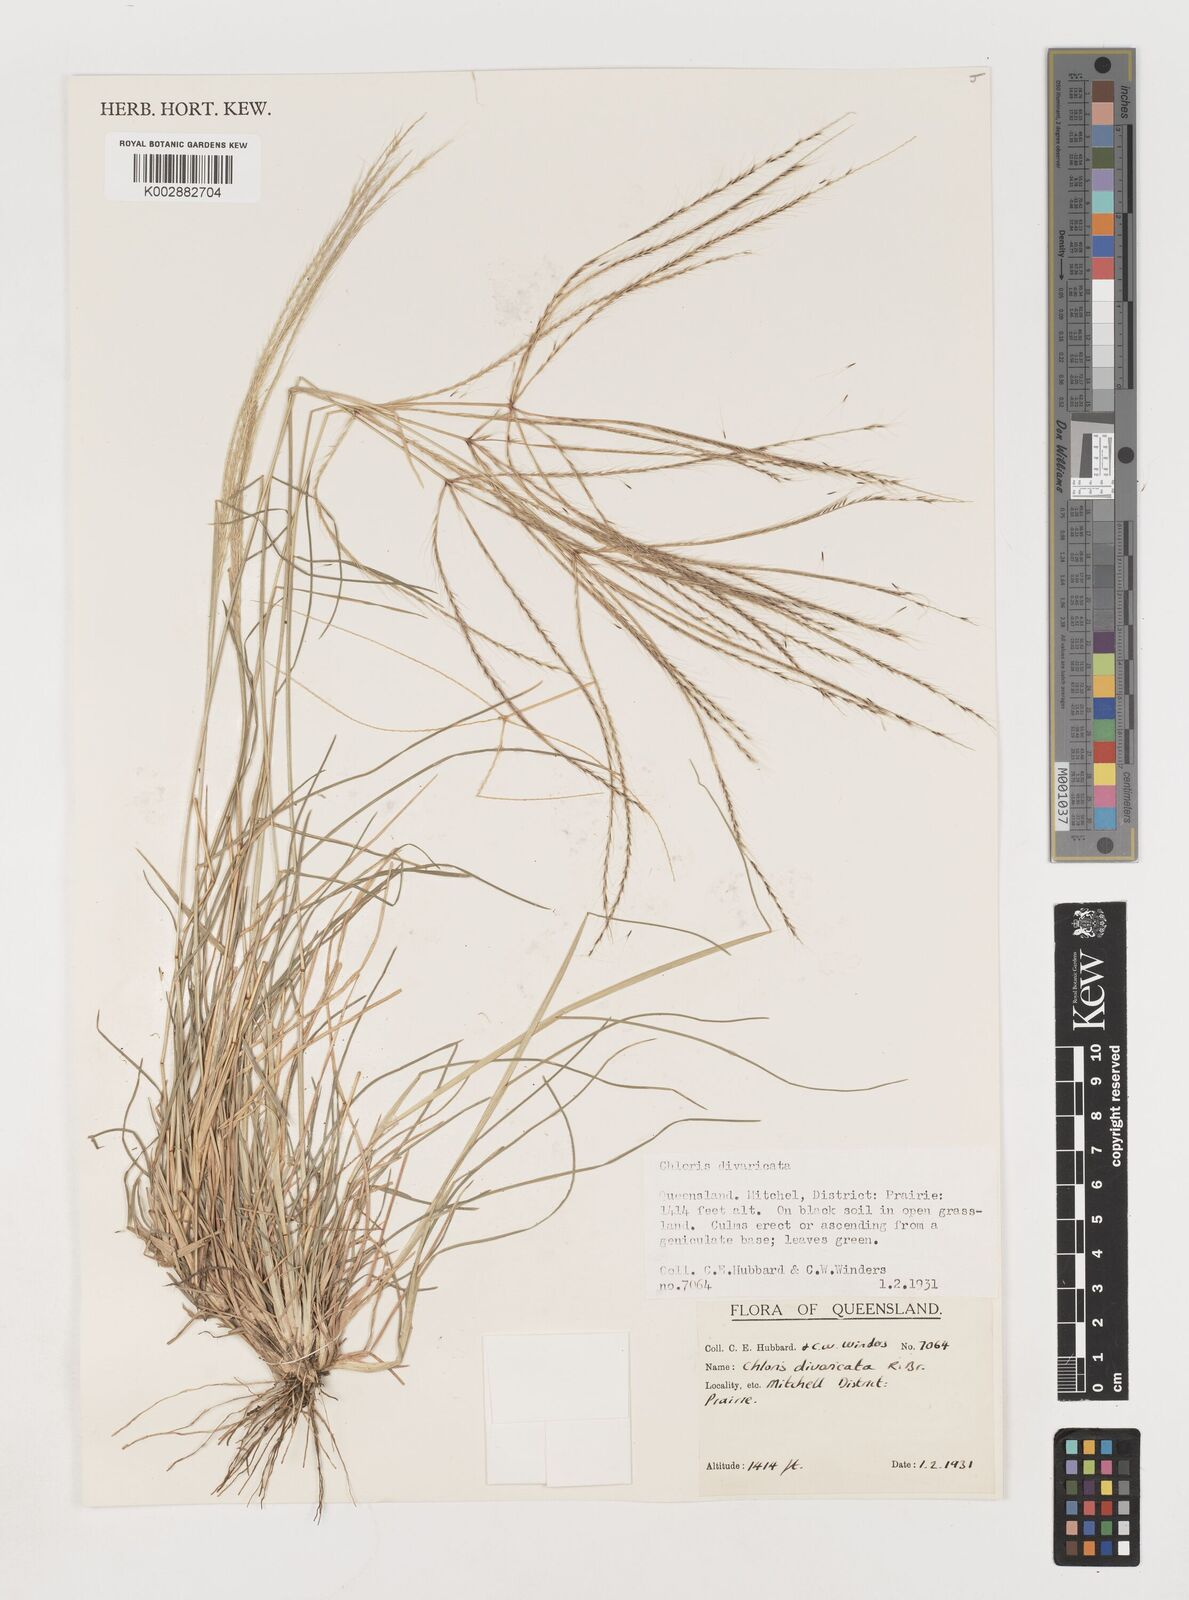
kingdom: Plantae
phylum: Tracheophyta
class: Liliopsida
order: Poales
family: Poaceae
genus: Chloris
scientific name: Chloris divaricata
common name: Spreading windmill grass
